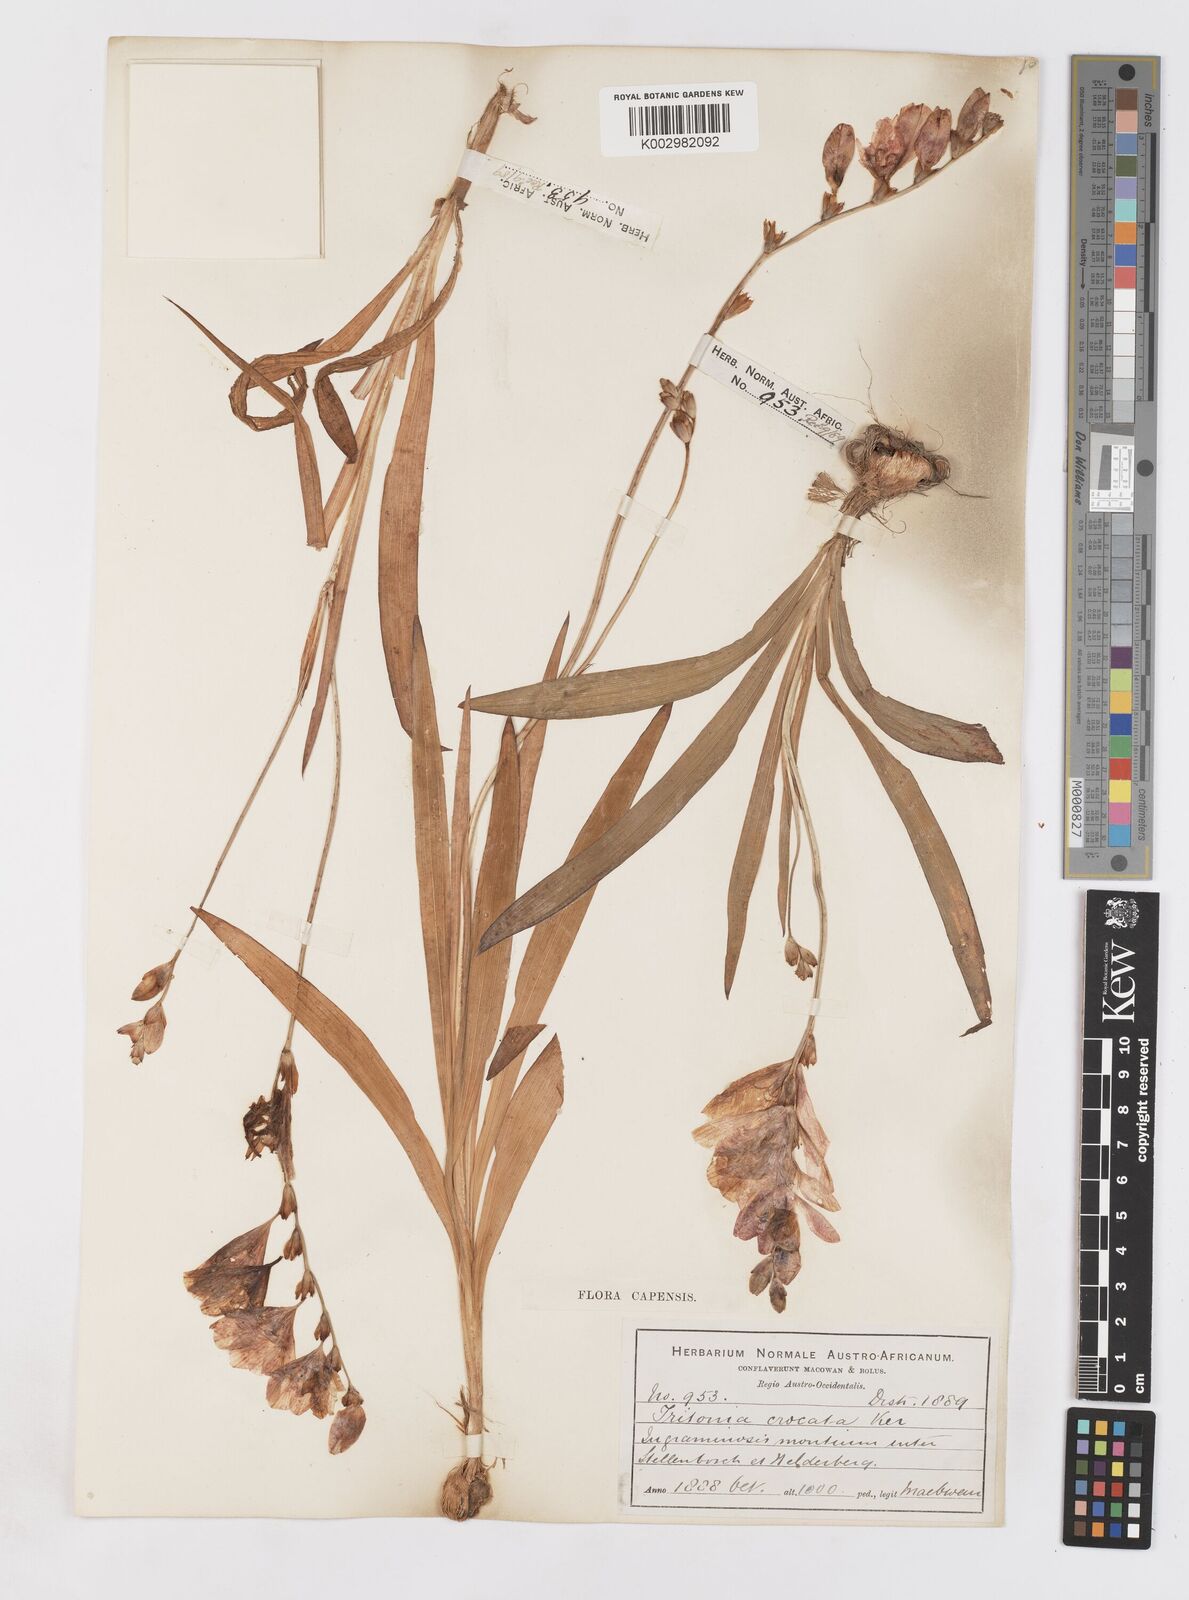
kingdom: Plantae
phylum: Tracheophyta
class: Liliopsida
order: Asparagales
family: Iridaceae
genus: Tritonia
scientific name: Tritonia crocata
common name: Flame-freesia
